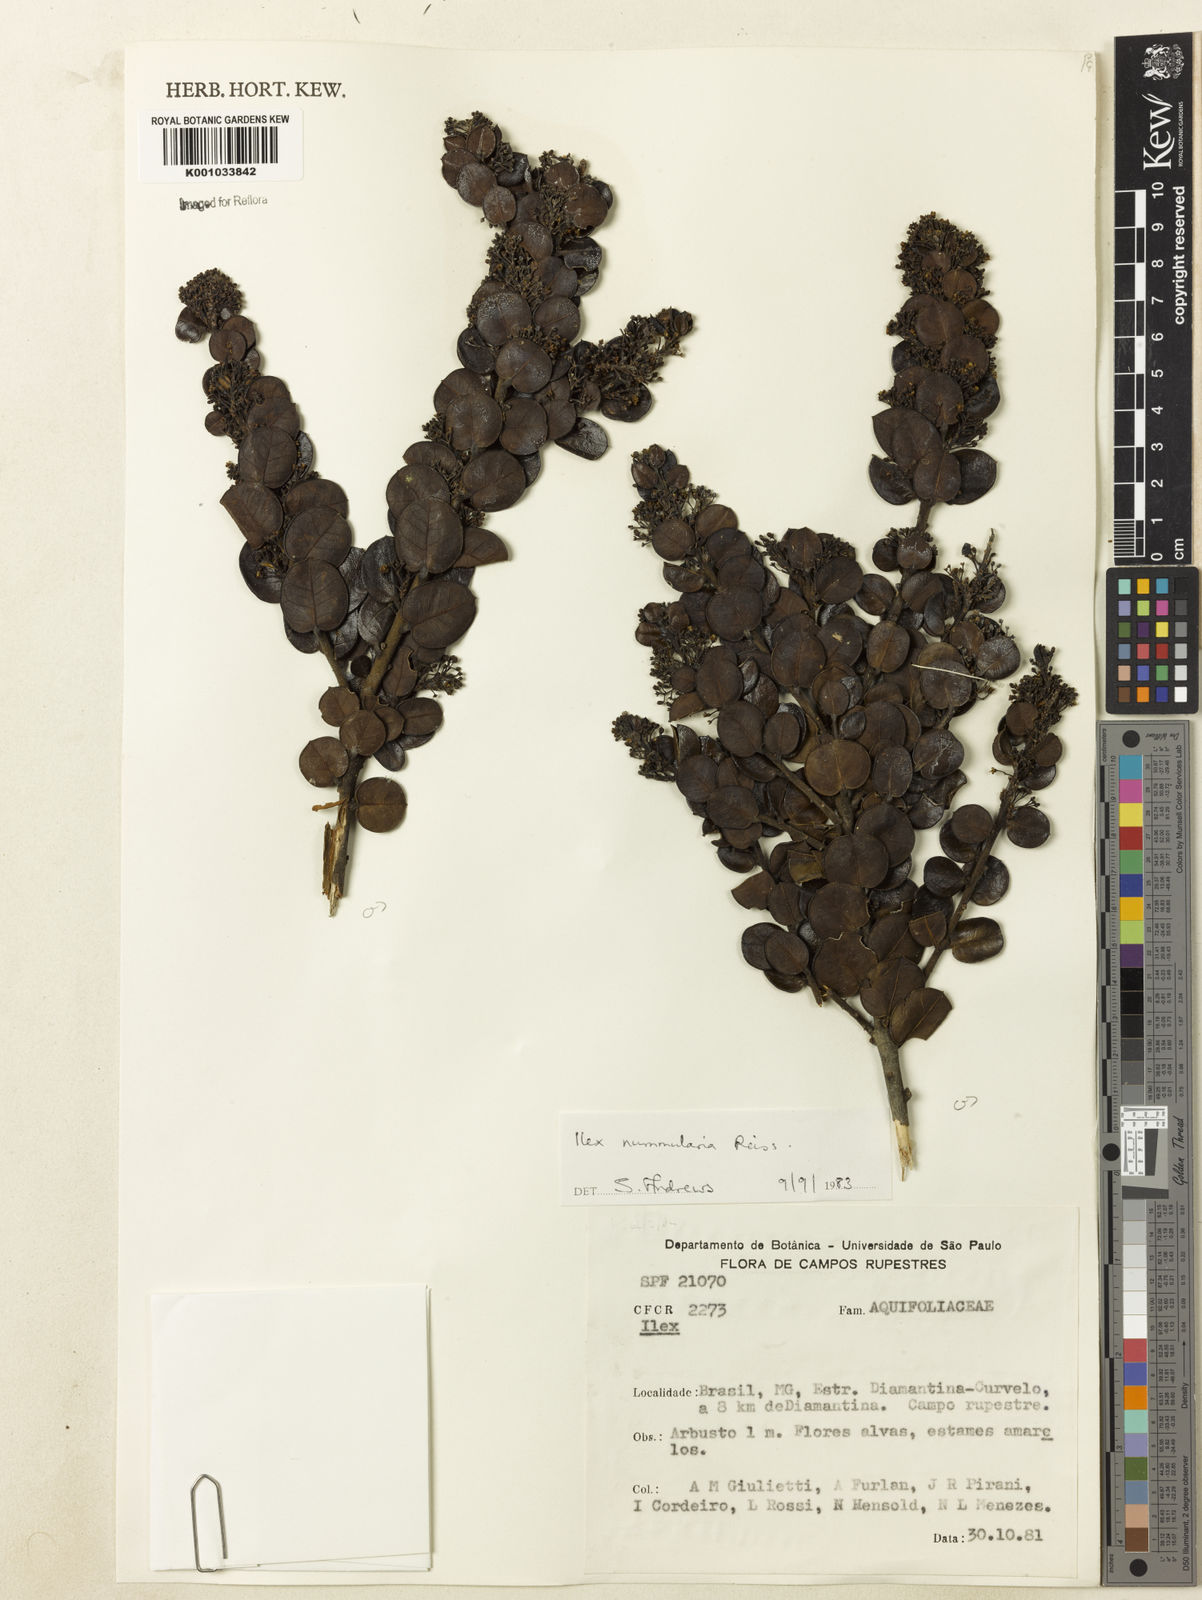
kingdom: Plantae
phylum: Tracheophyta
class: Magnoliopsida
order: Aquifoliales
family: Aquifoliaceae
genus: Ilex
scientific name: Ilex nummularia
